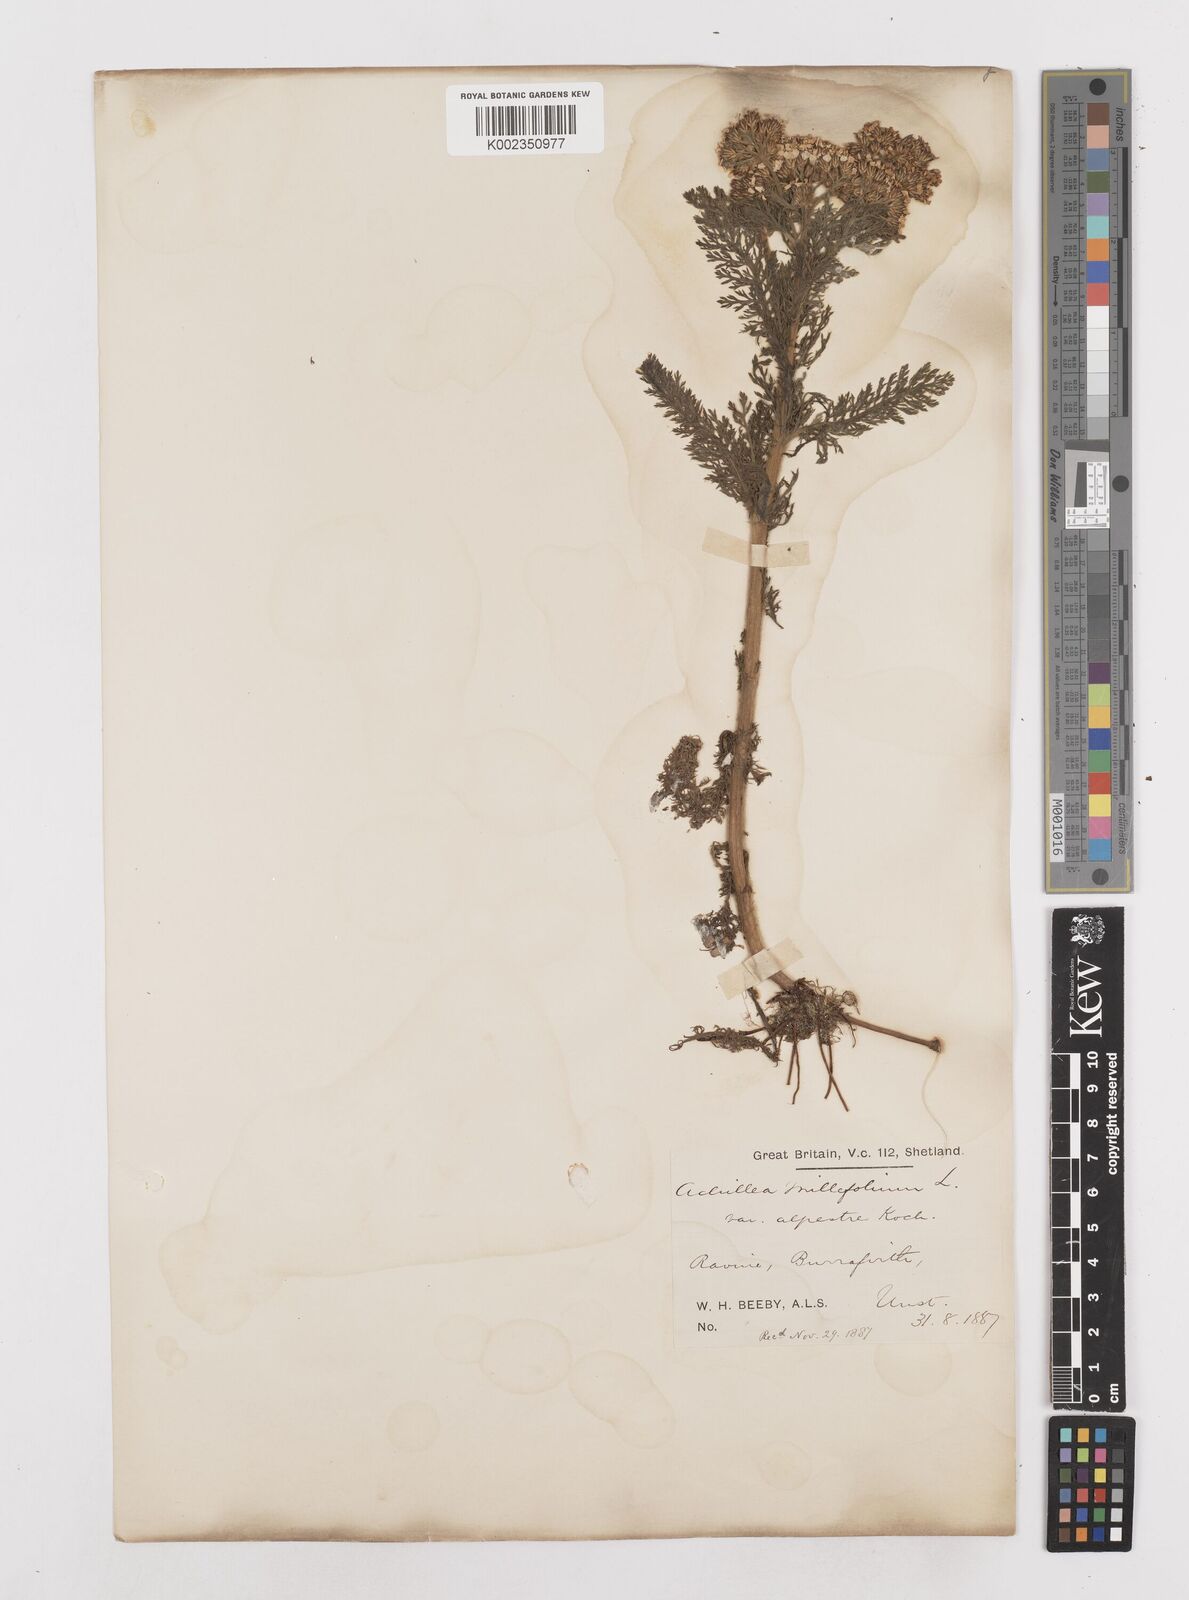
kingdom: Plantae
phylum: Tracheophyta
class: Magnoliopsida
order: Asterales
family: Asteraceae
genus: Achillea
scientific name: Achillea millefolium
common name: Yarrow
